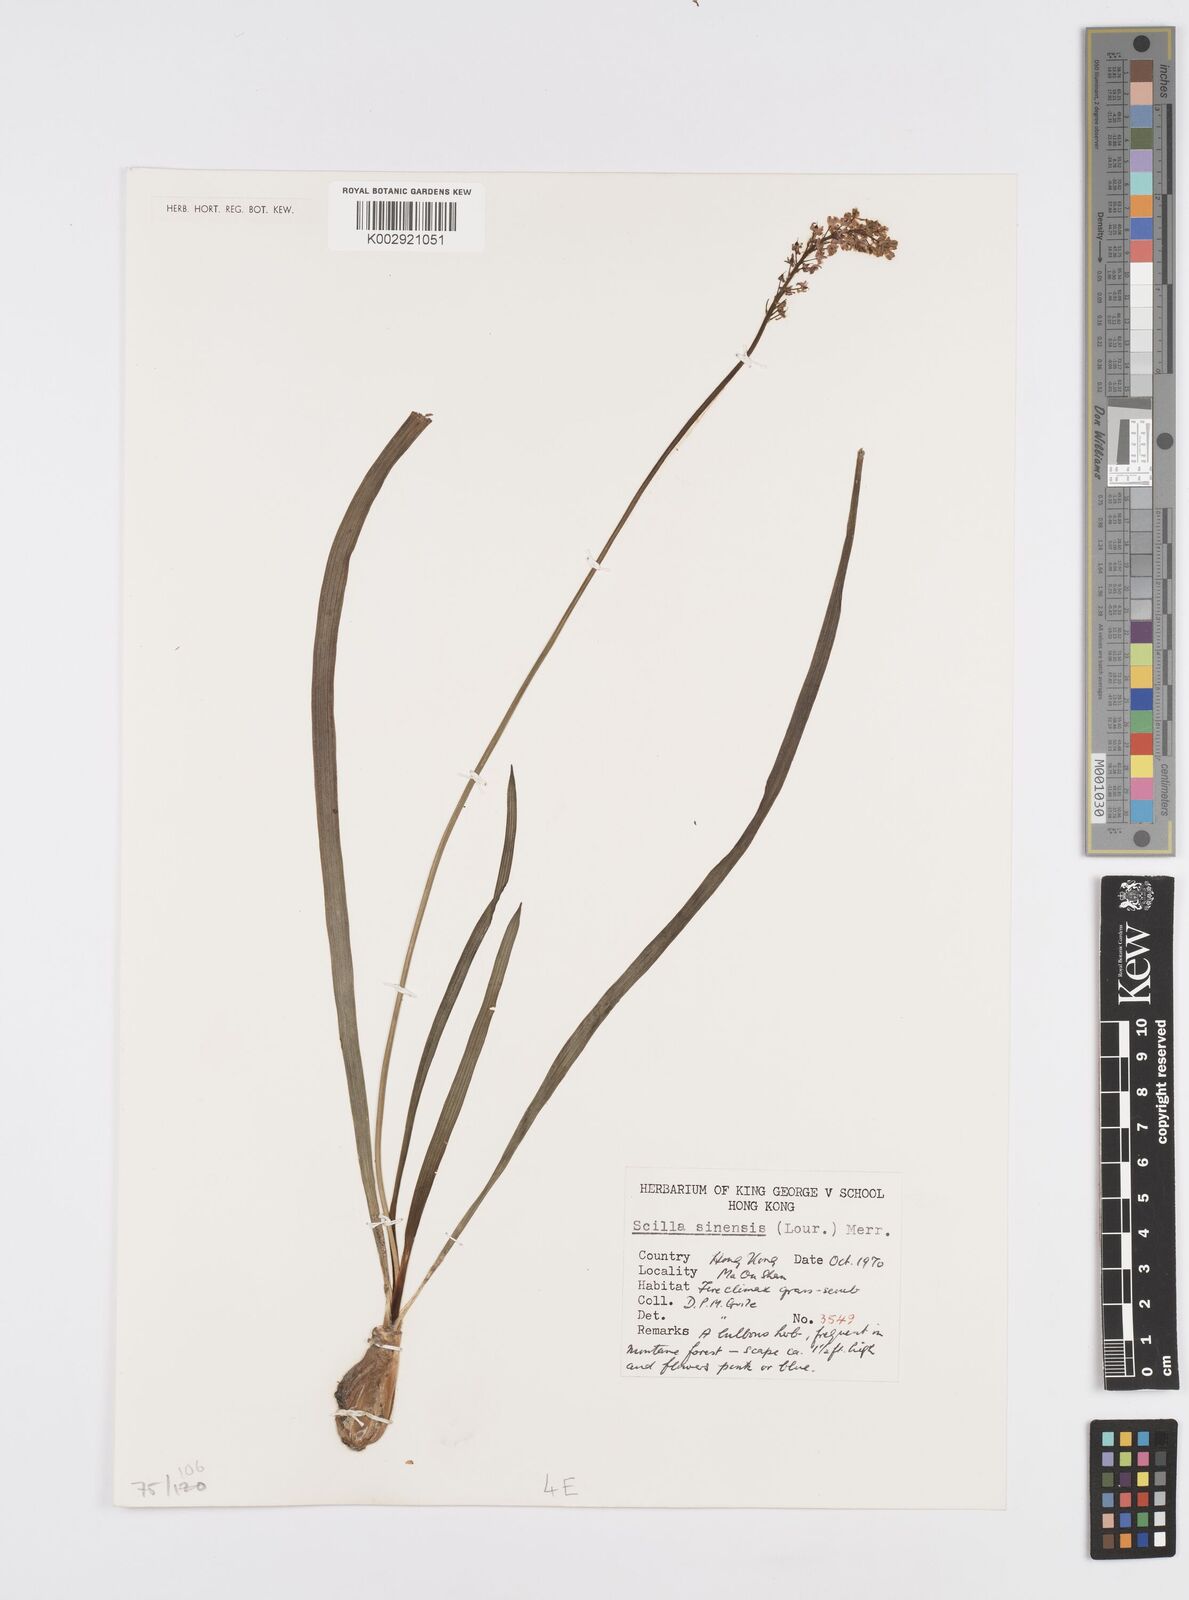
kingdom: Plantae
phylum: Tracheophyta
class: Liliopsida
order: Asparagales
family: Asparagaceae
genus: Barnardia
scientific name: Barnardia japonica
